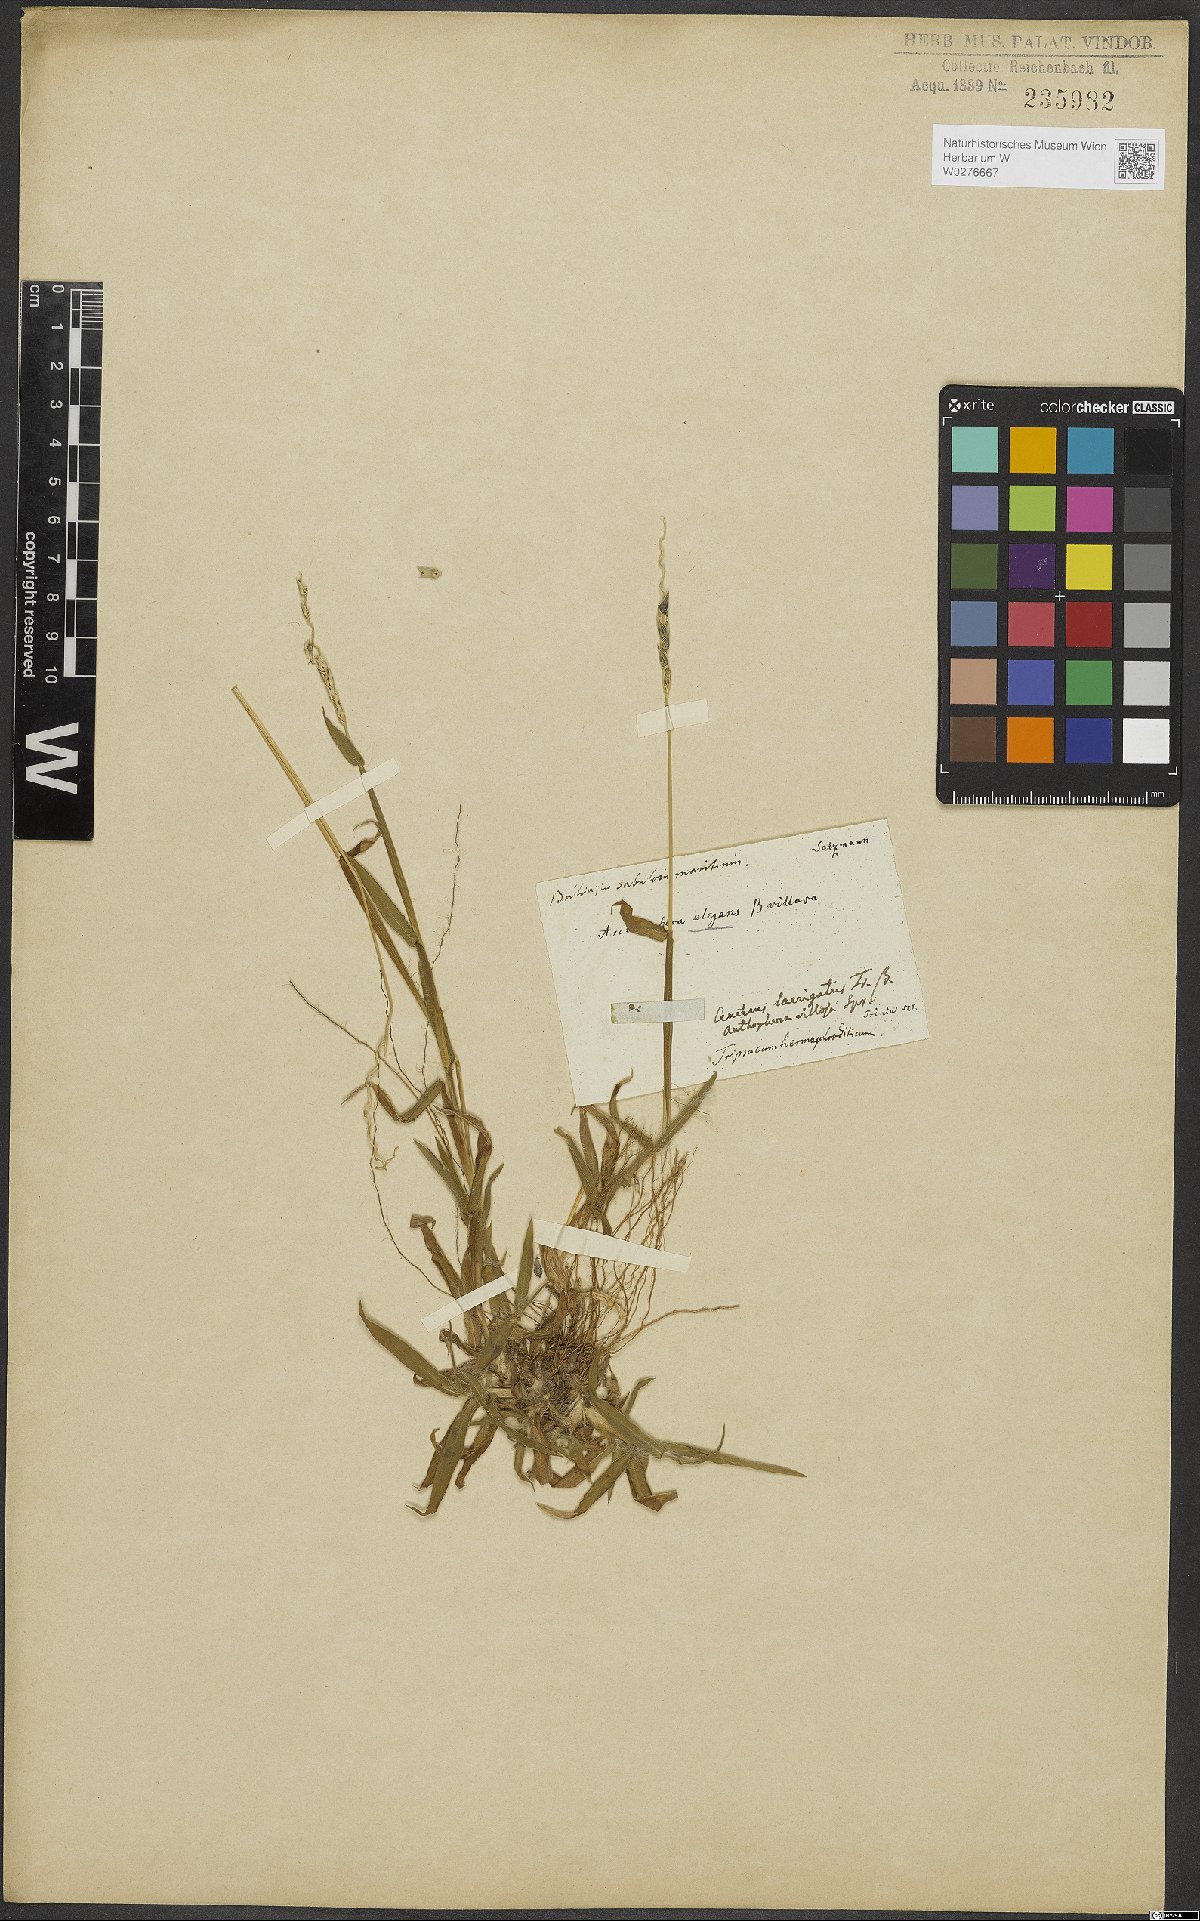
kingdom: Plantae
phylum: Tracheophyta
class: Liliopsida
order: Poales
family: Poaceae
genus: Anthephora
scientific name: Anthephora hermaphrodita
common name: Oldfield grass
